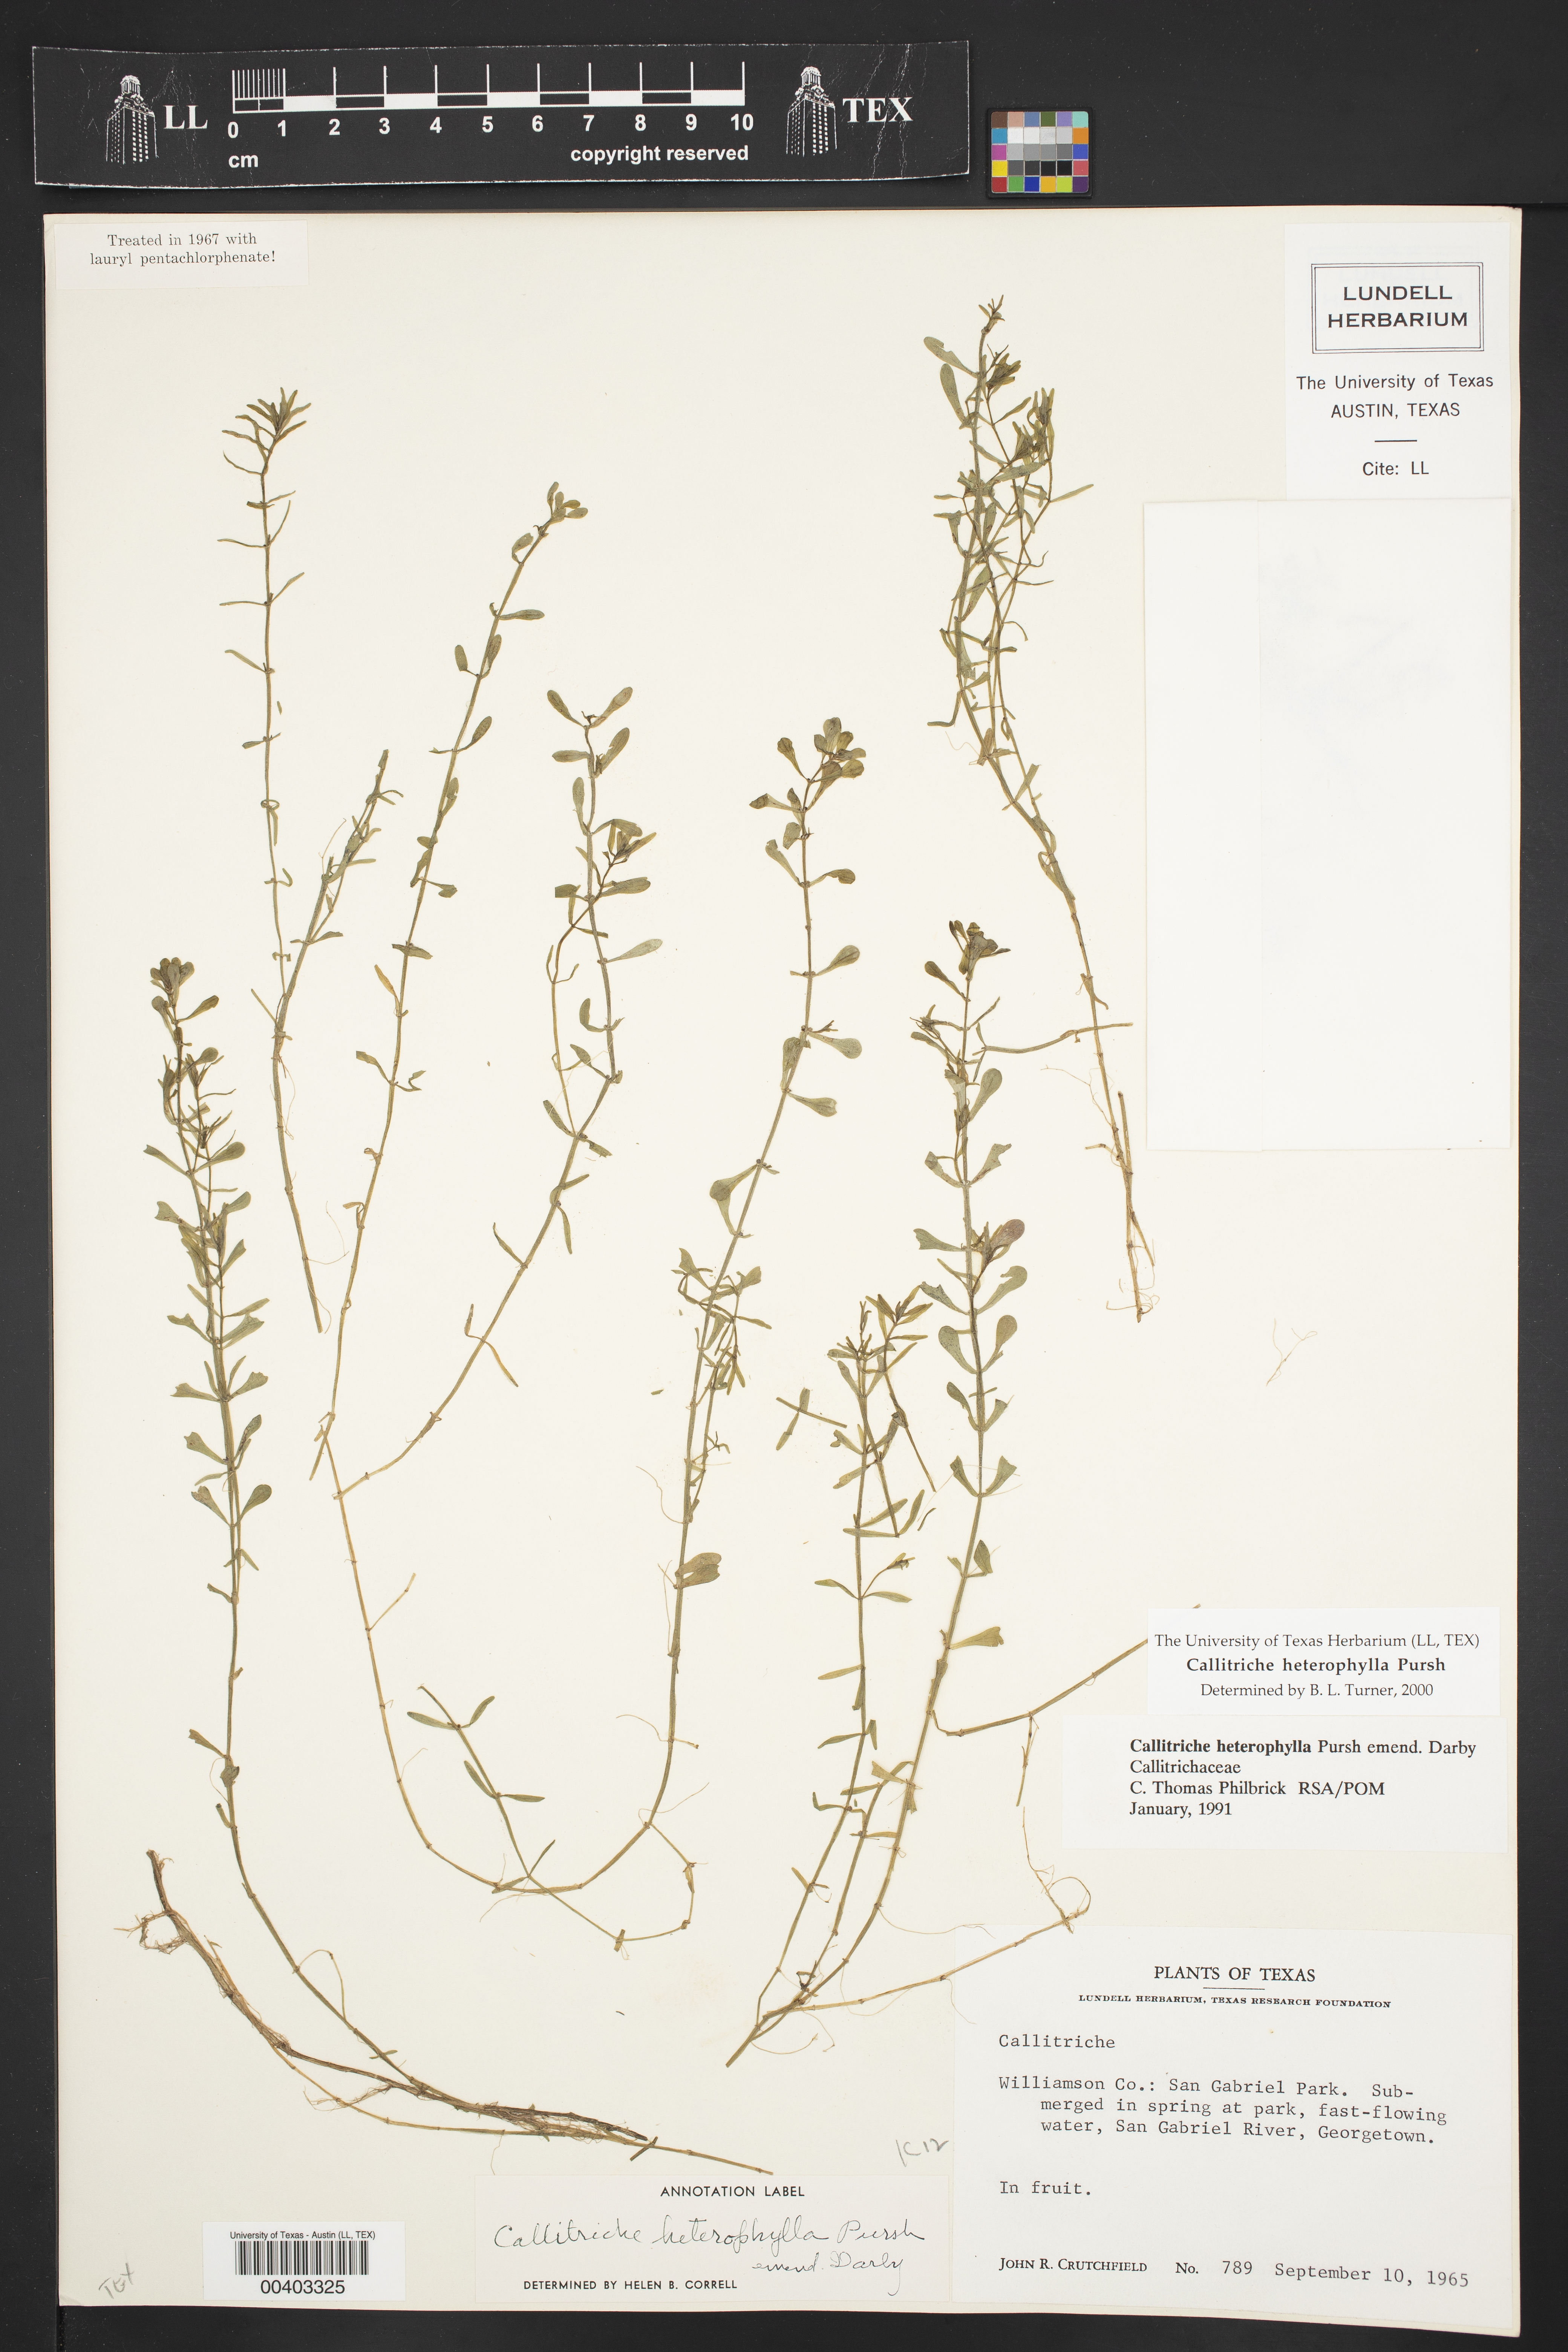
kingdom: Plantae
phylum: Tracheophyta
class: Magnoliopsida
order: Lamiales
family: Plantaginaceae
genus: Callitriche
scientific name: Callitriche heterophylla
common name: Two-headed water-starwort
